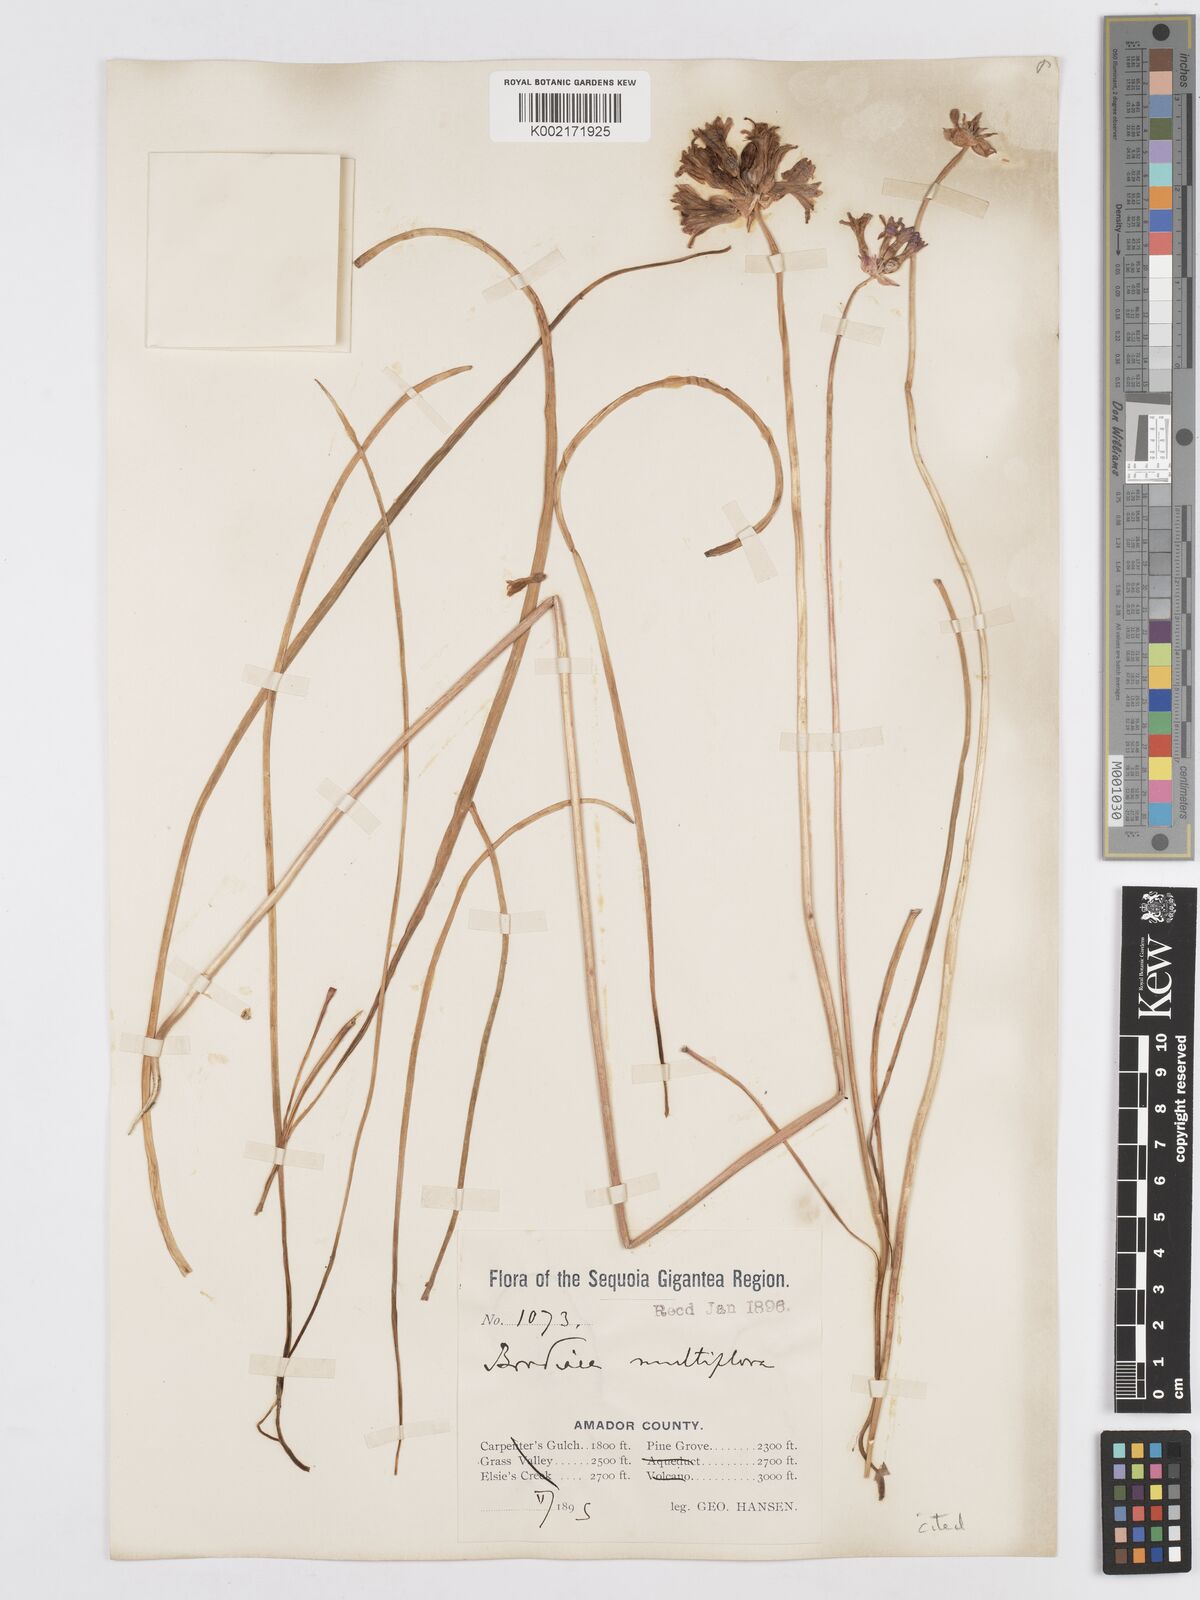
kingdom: Plantae
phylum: Tracheophyta
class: Liliopsida
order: Asparagales
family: Asparagaceae
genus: Dichelostemma
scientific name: Dichelostemma multiflorum
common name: Round-tooth ookow
